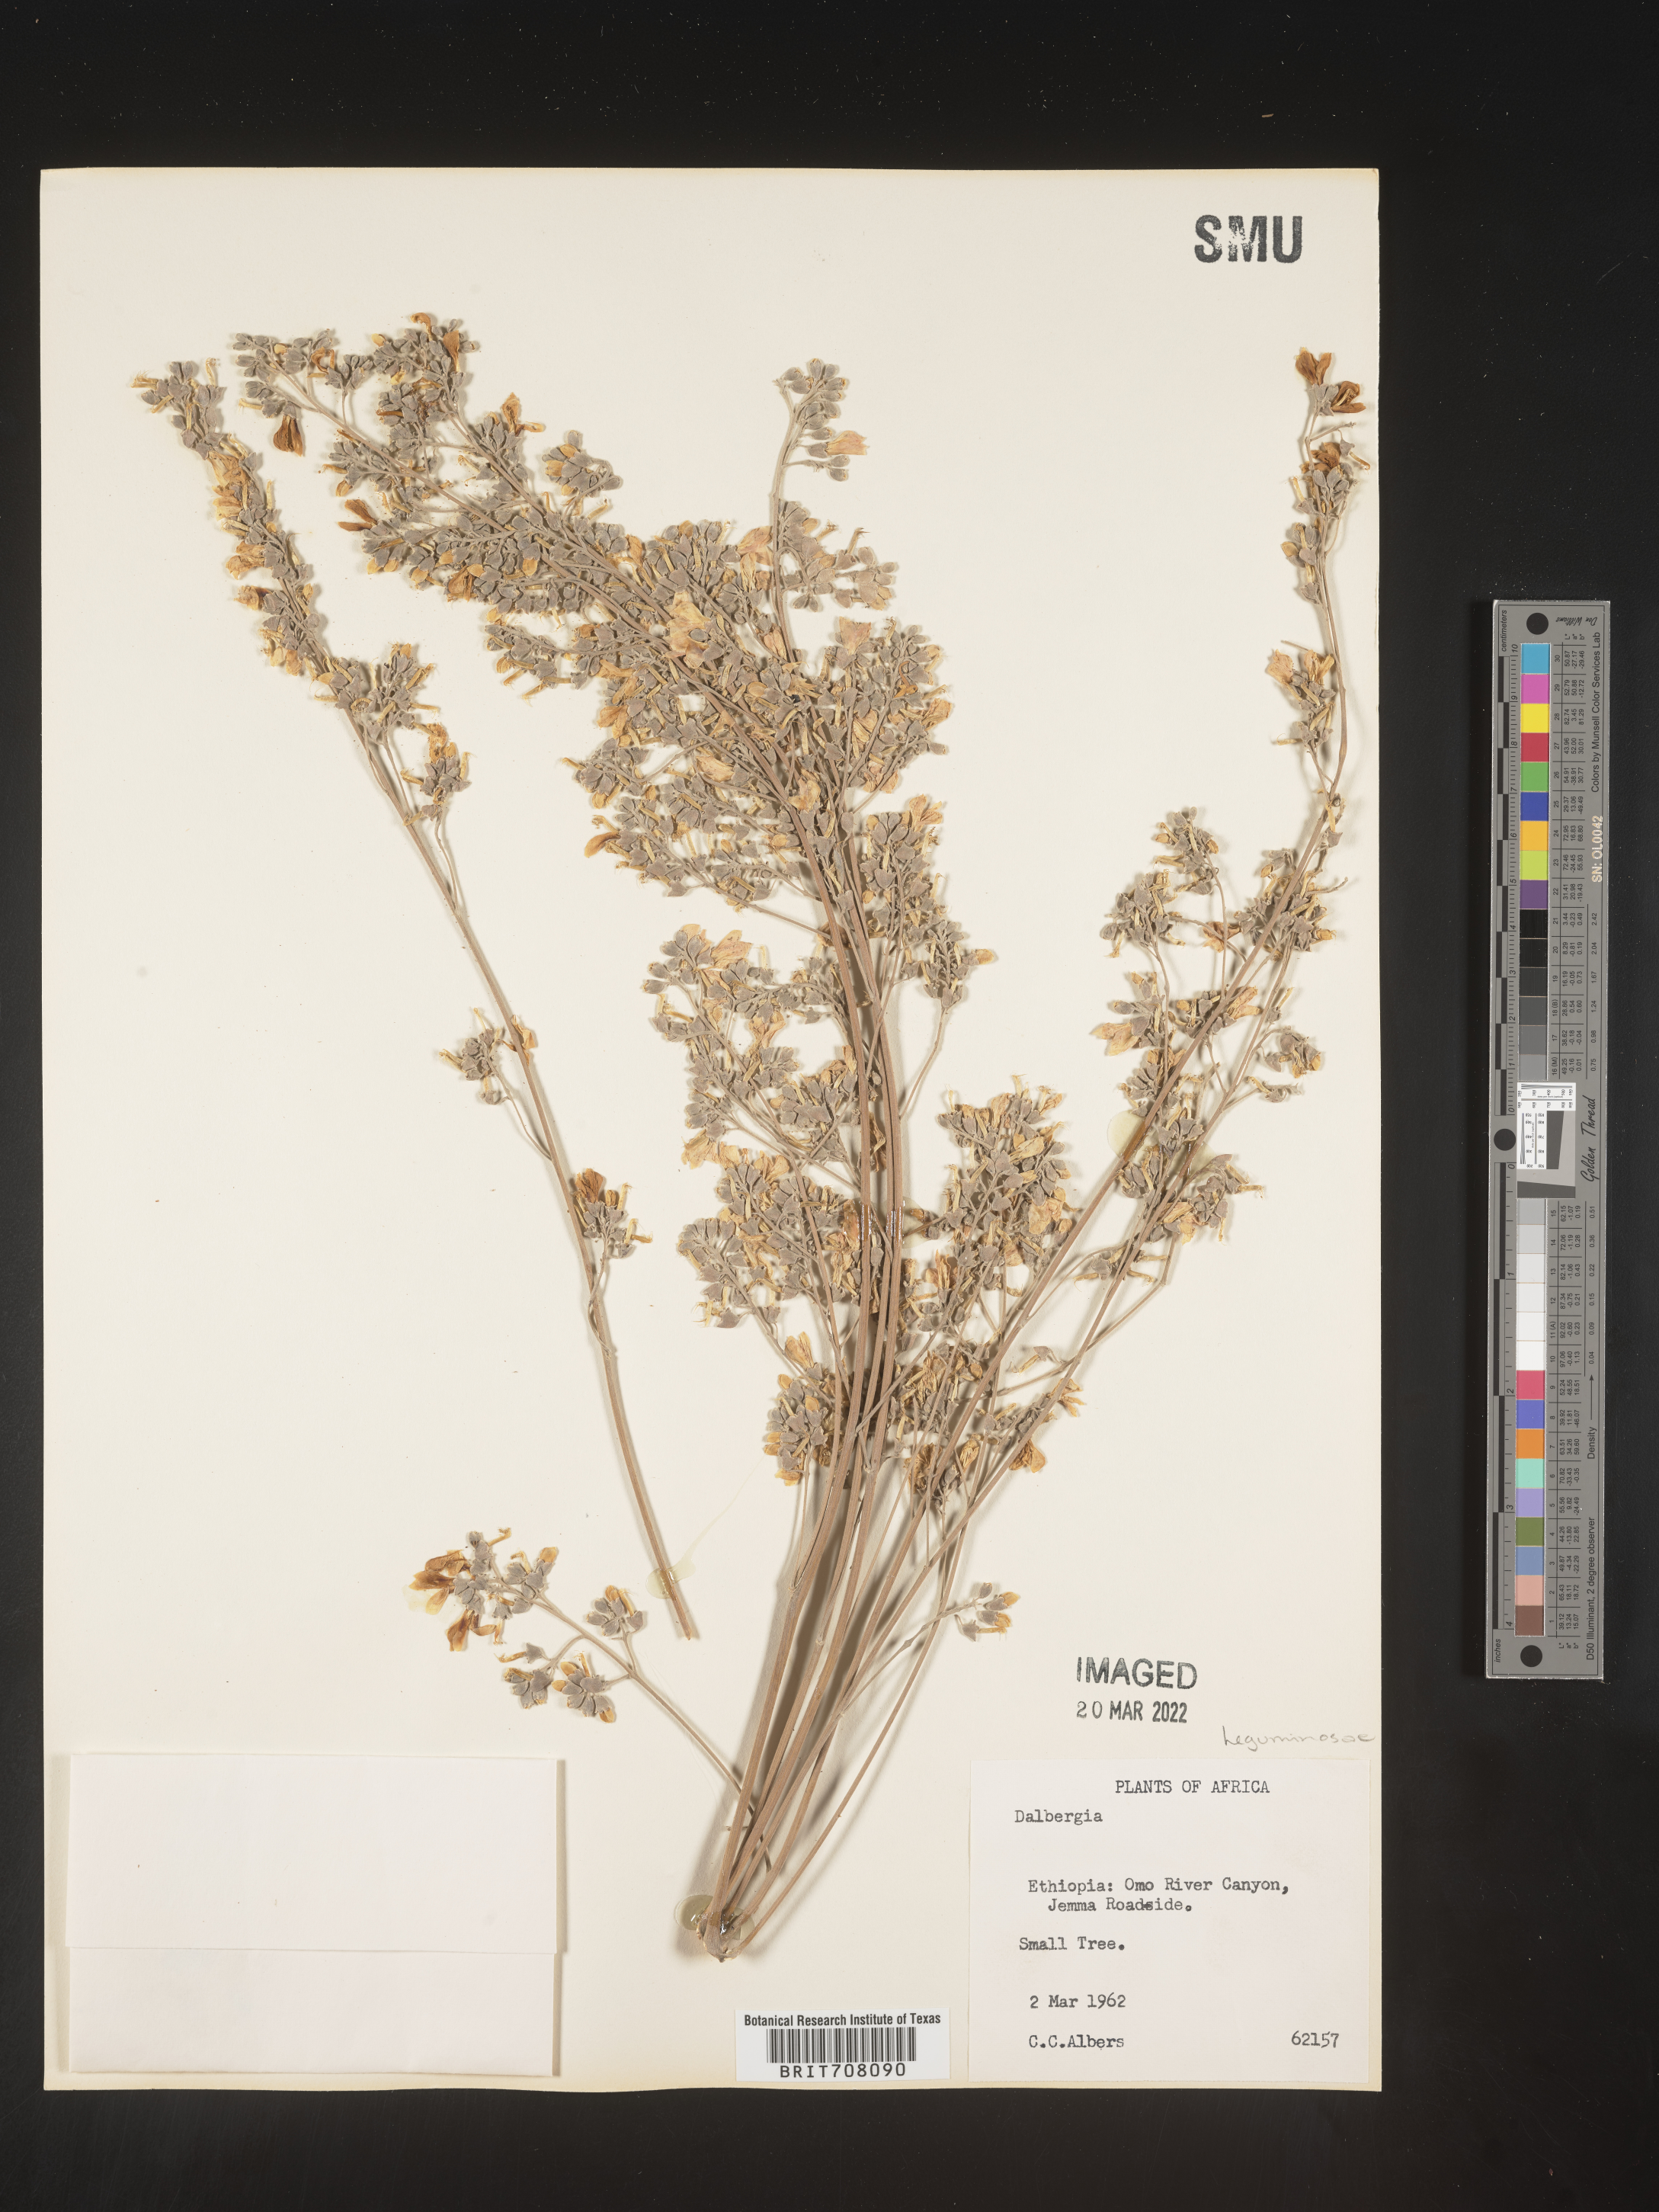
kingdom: Plantae
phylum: Tracheophyta
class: Magnoliopsida
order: Fabales
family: Fabaceae
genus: Dalbergia
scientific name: Dalbergia
